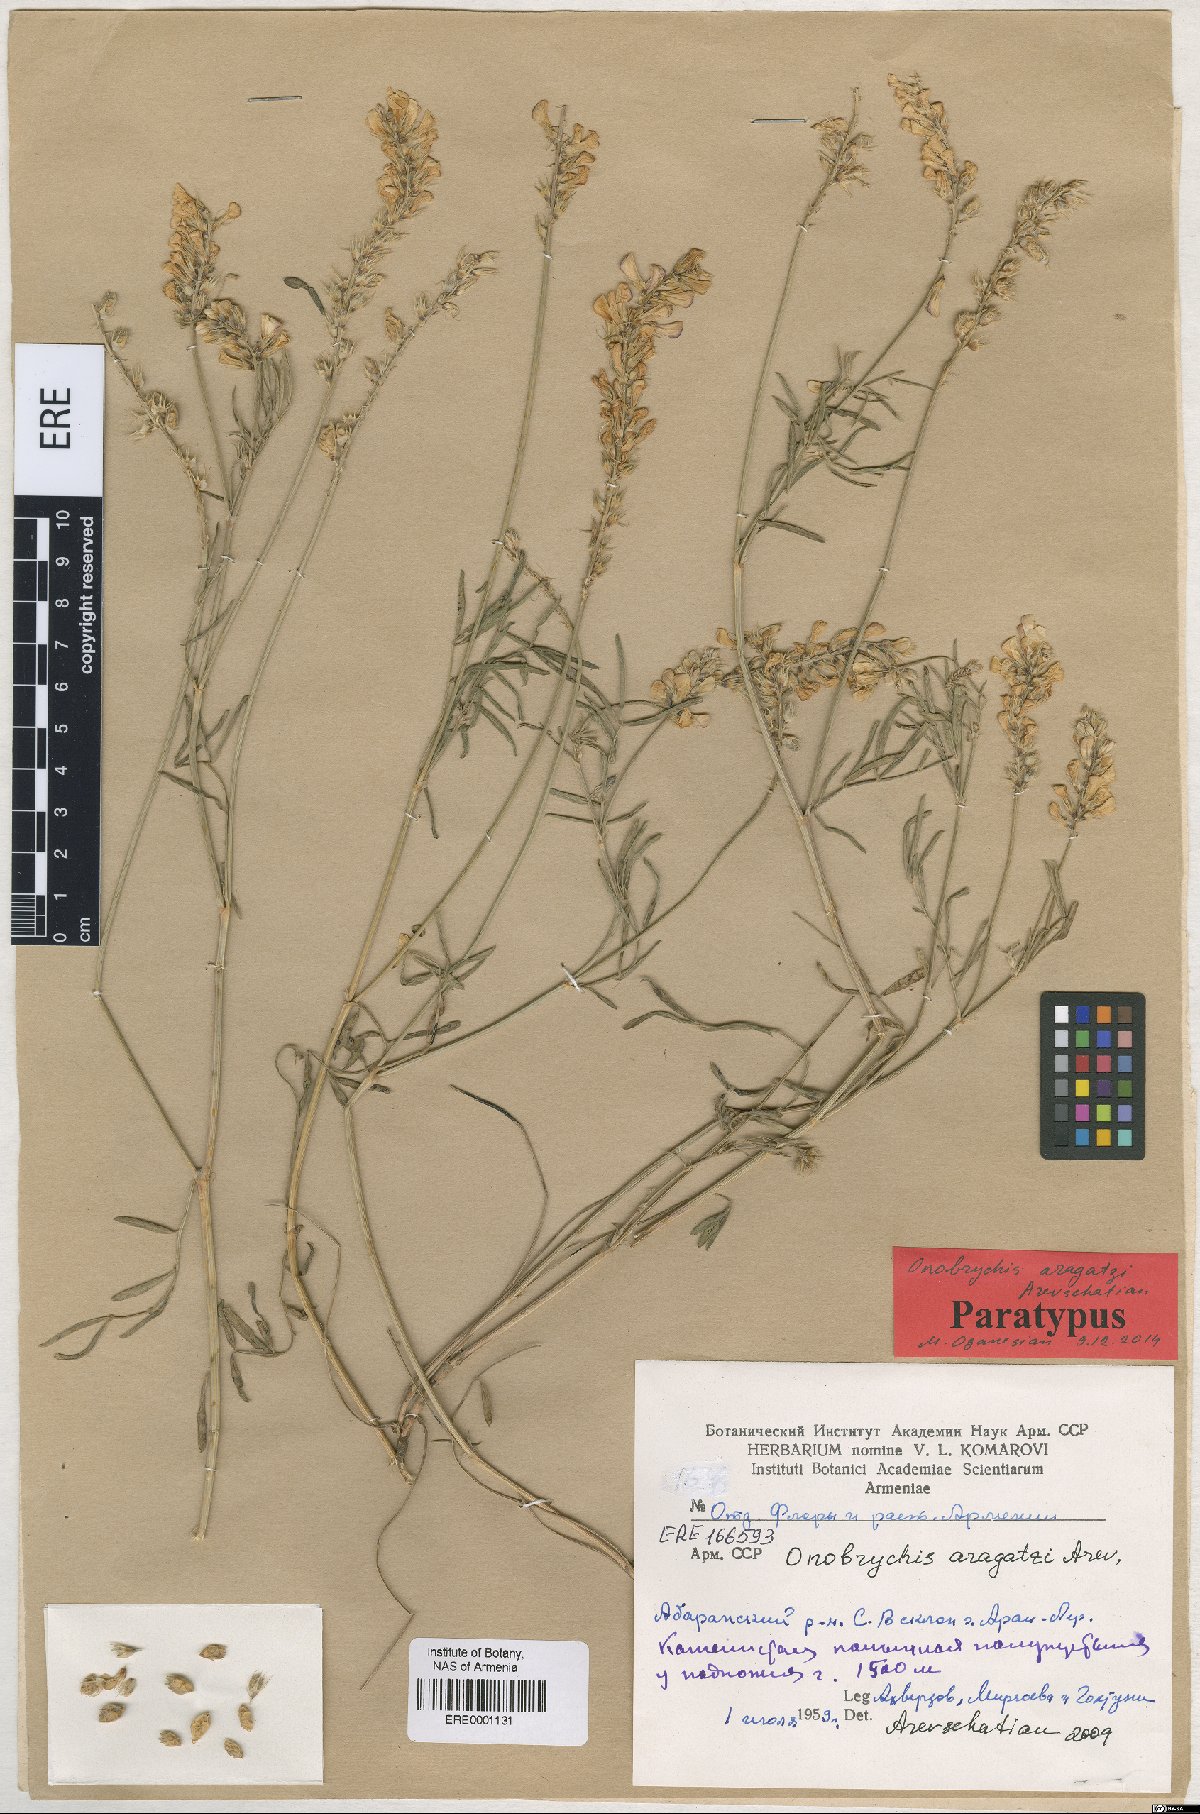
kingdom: Plantae
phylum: Tracheophyta
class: Magnoliopsida
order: Fabales
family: Fabaceae
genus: Onobrychis
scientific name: Onobrychis aragatzi
